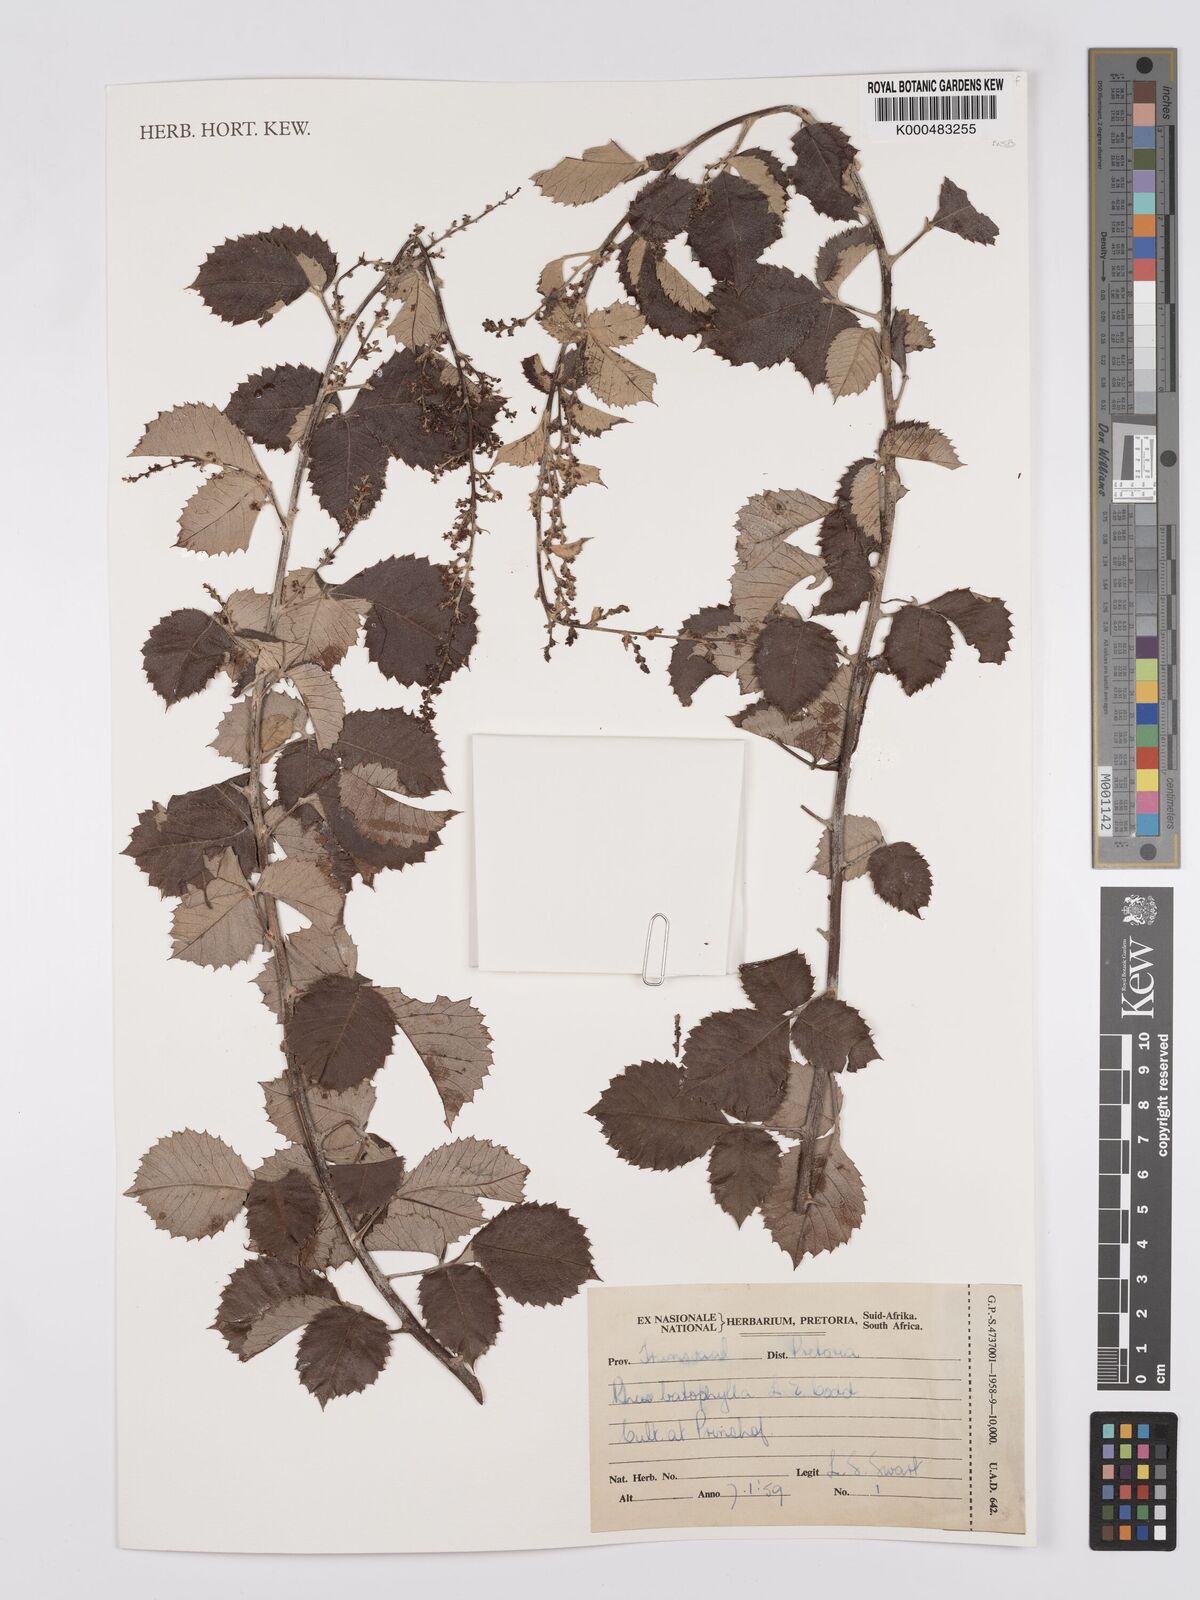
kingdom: Plantae
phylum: Tracheophyta
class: Magnoliopsida
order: Sapindales
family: Anacardiaceae
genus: Searsia
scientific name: Searsia batophylla
